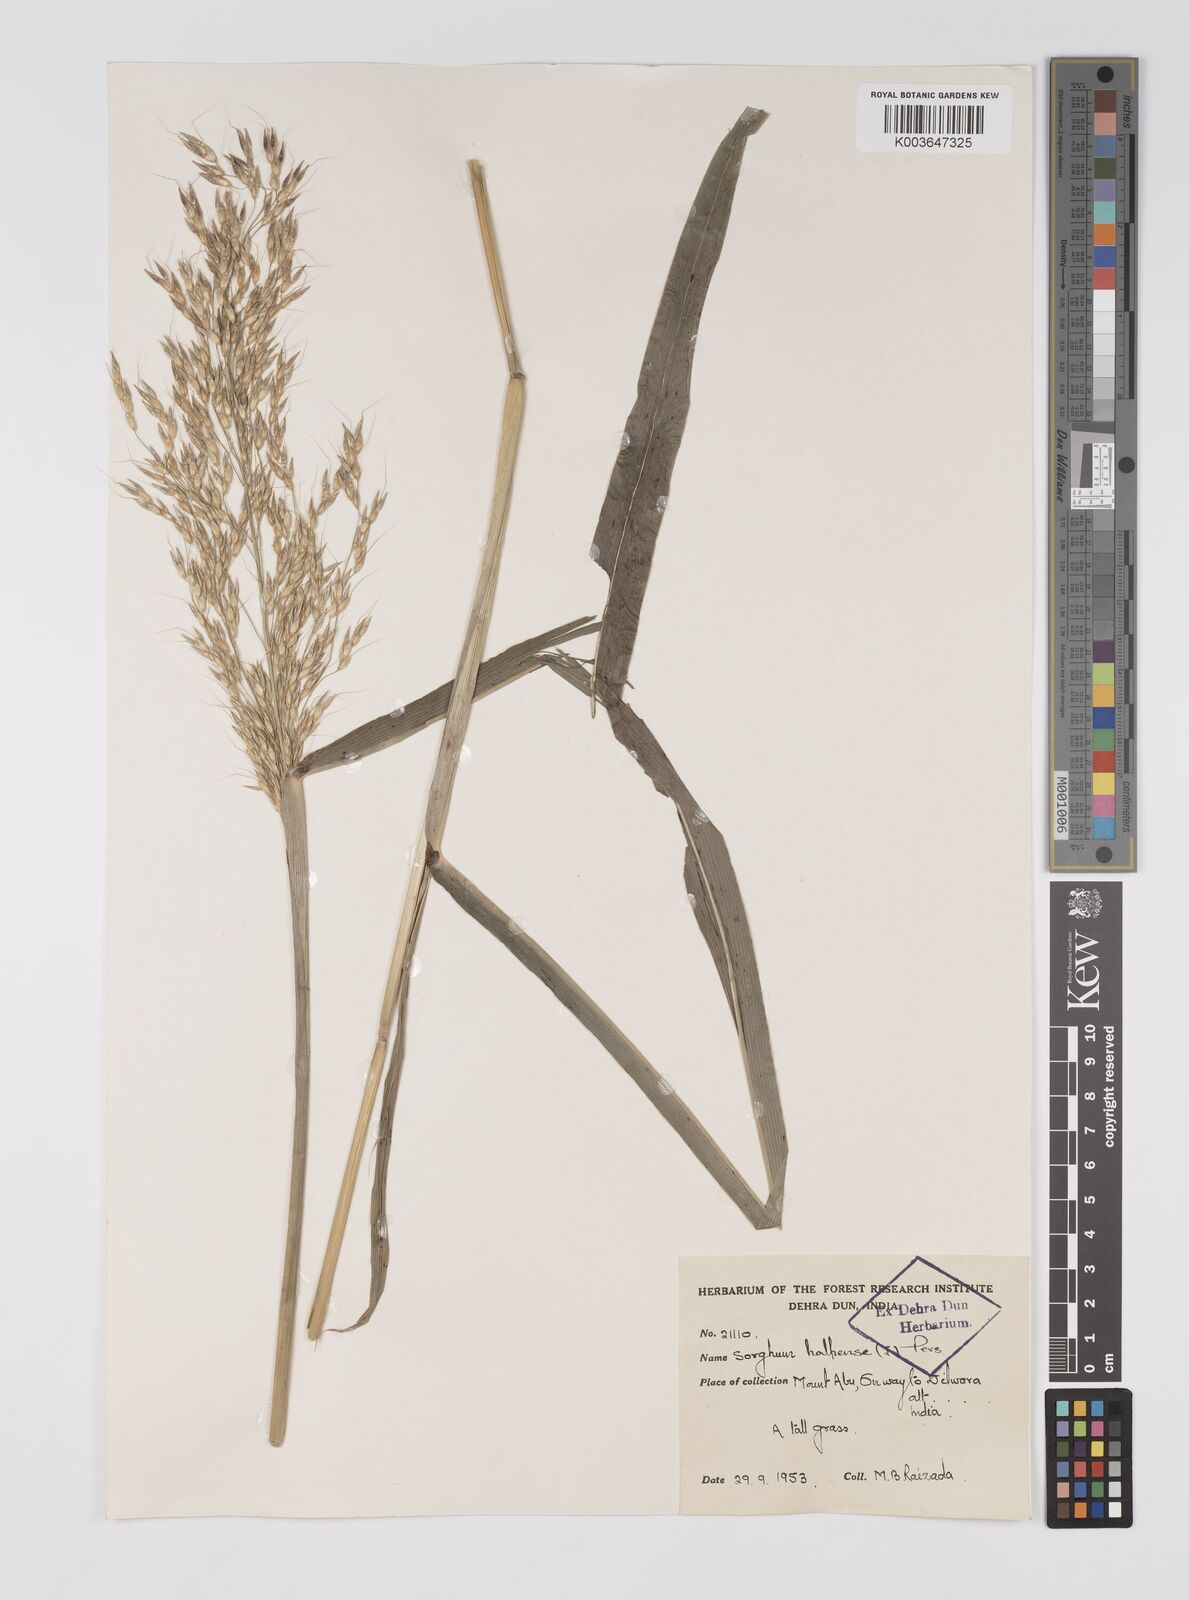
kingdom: Plantae
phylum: Tracheophyta
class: Liliopsida
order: Poales
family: Poaceae
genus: Sorghum
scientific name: Sorghum controversum
